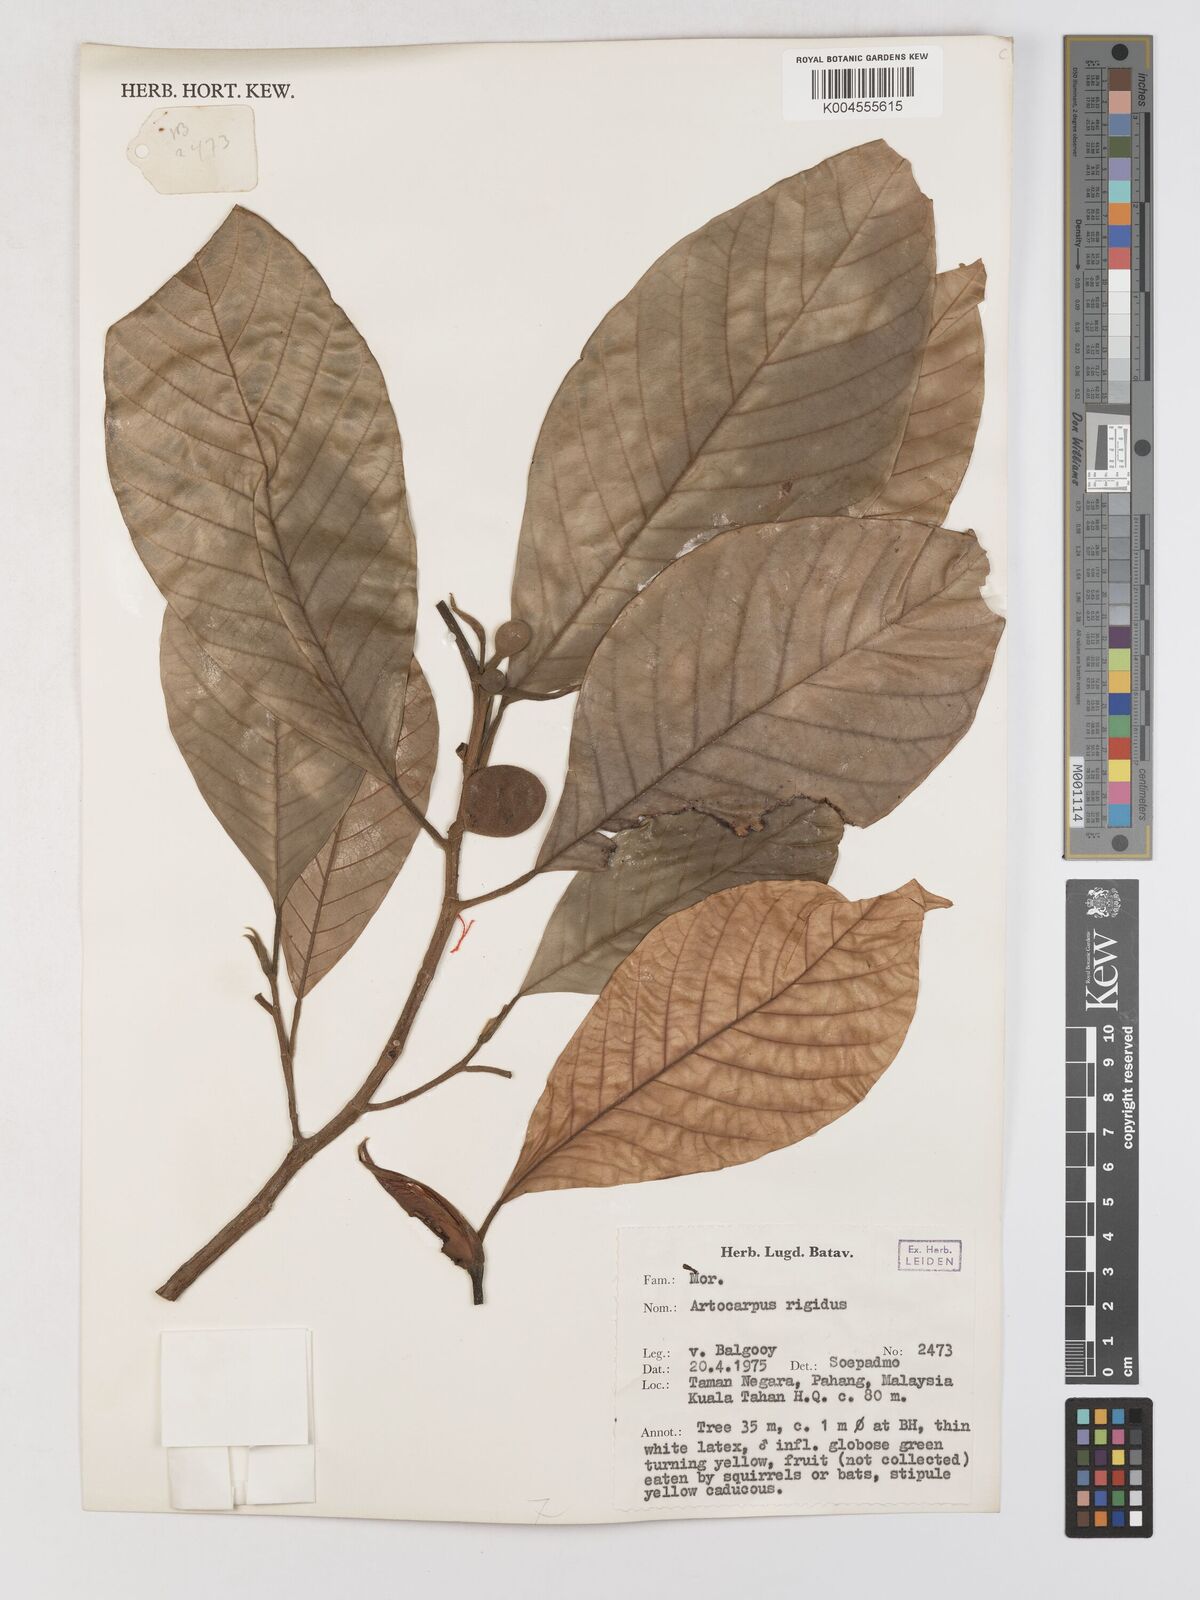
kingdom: Plantae
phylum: Tracheophyta
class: Magnoliopsida
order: Rosales
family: Moraceae
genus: Artocarpus
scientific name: Artocarpus
